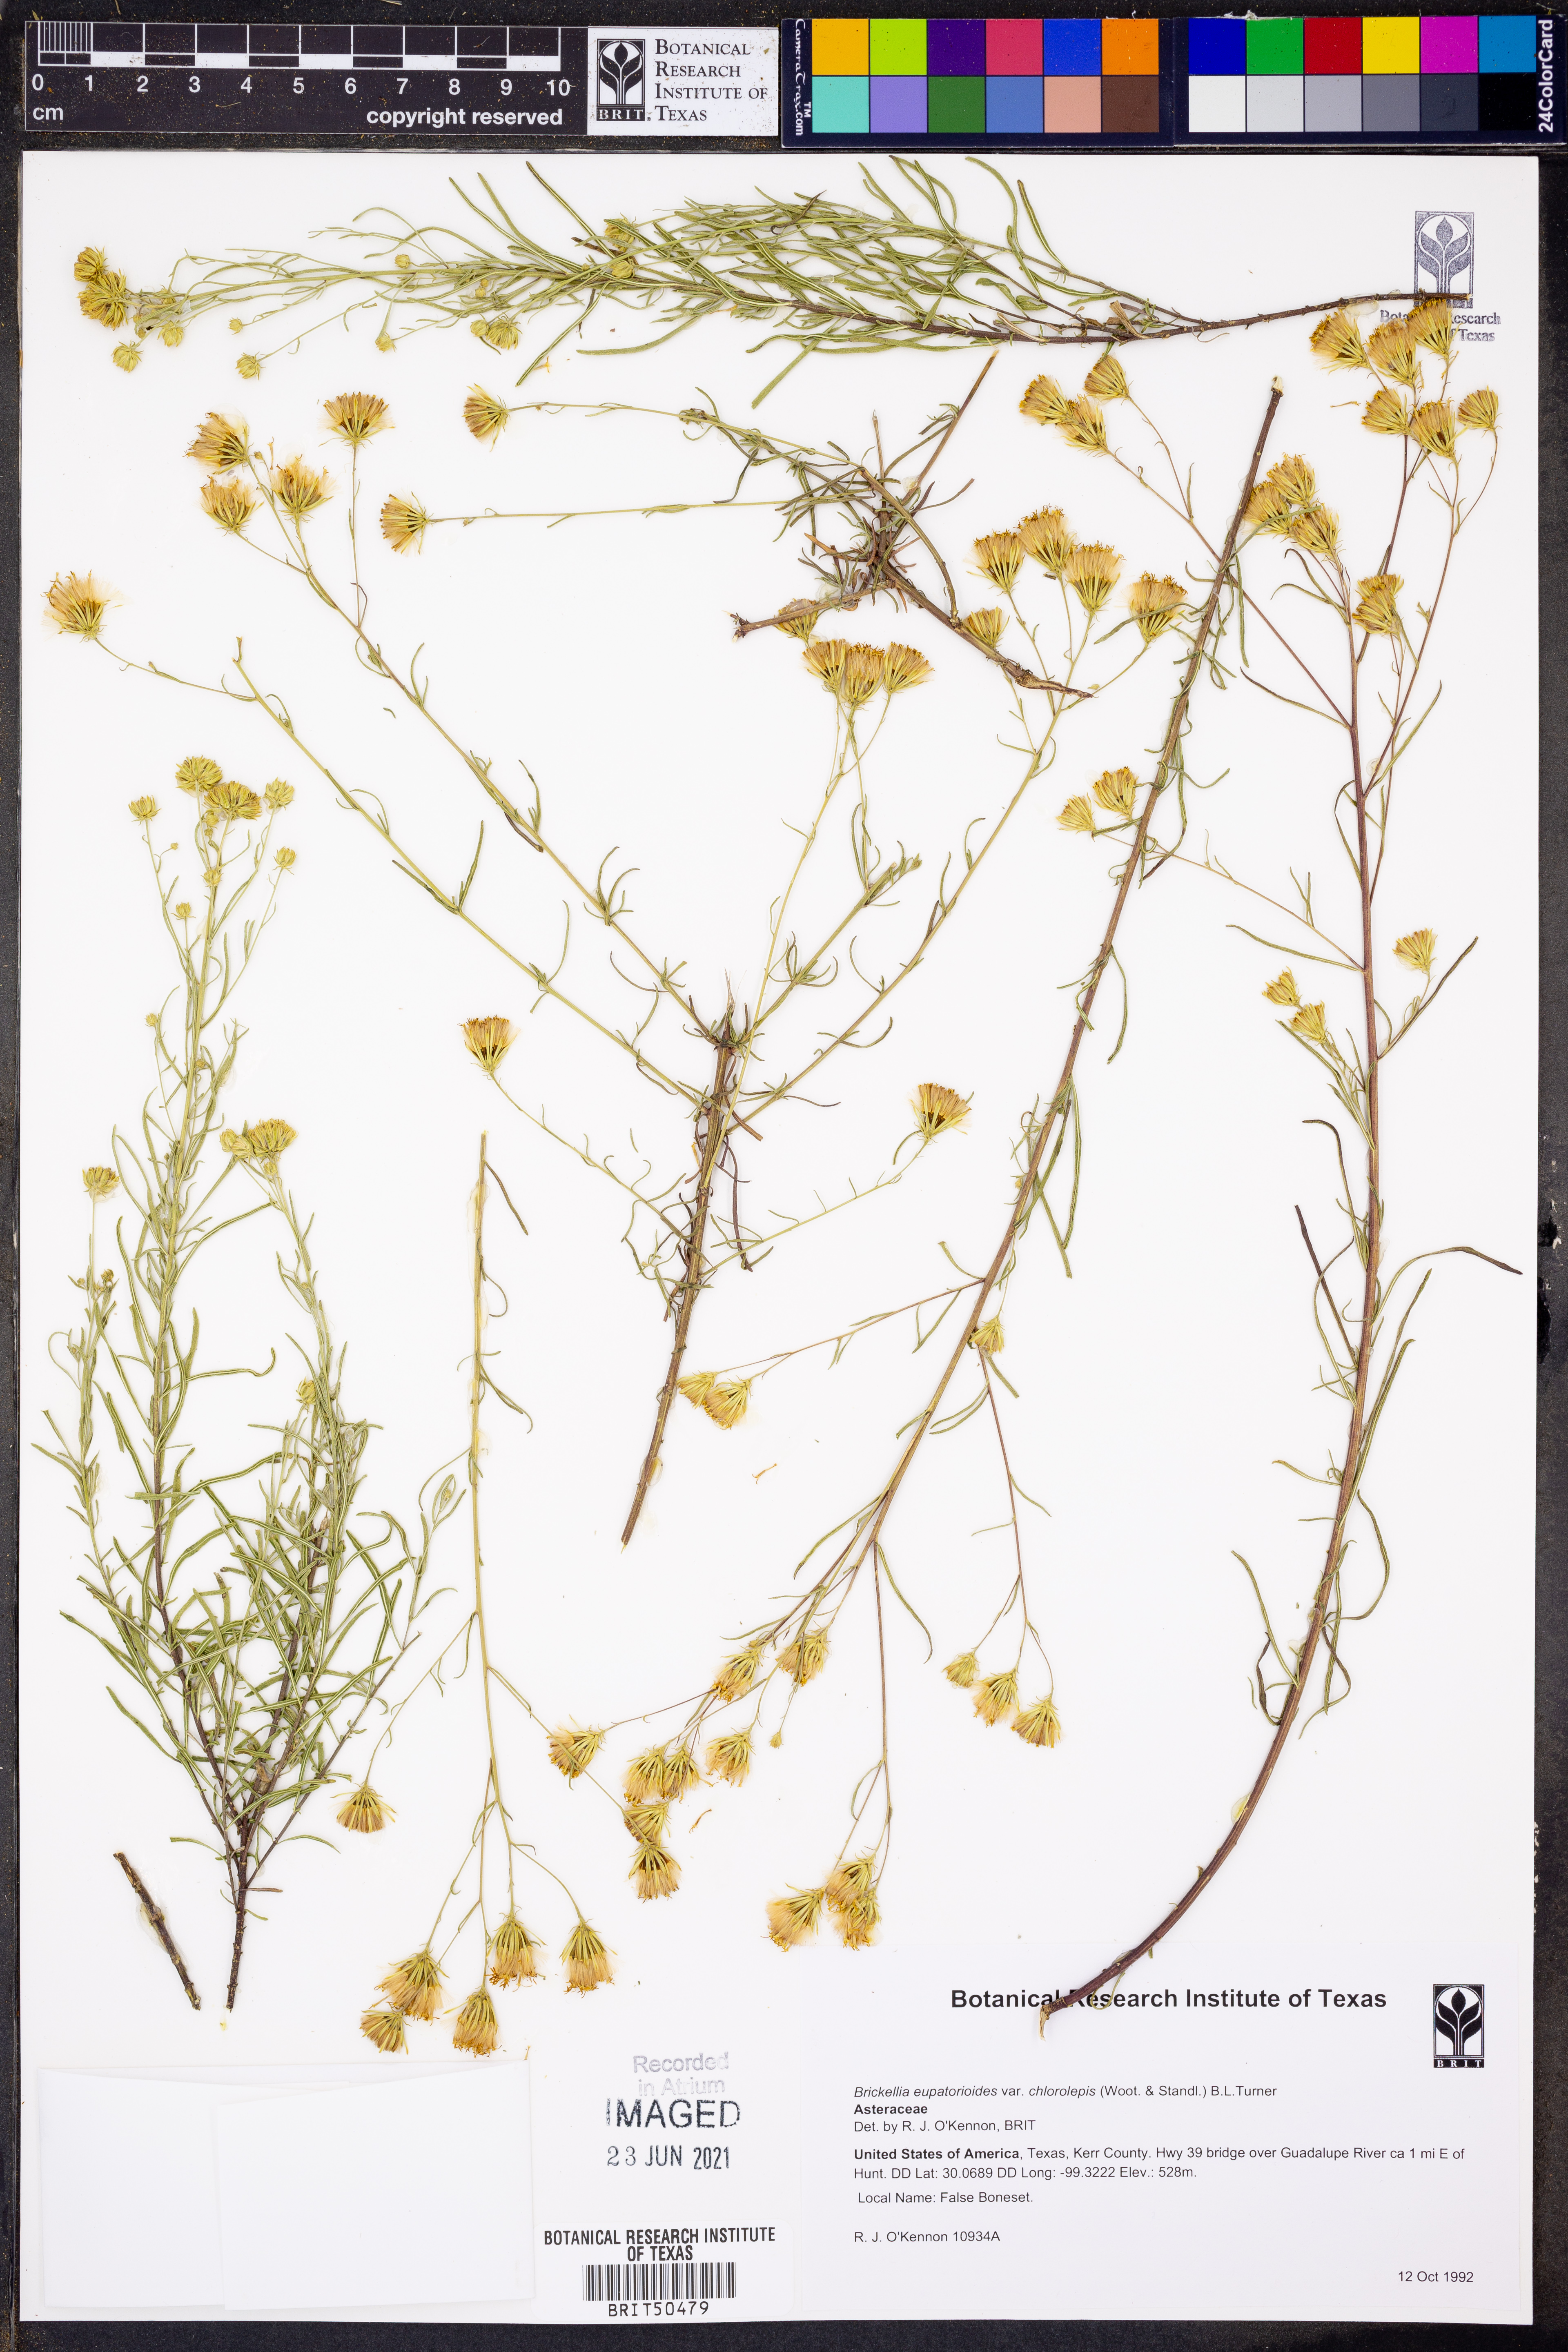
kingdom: Plantae
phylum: Tracheophyta
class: Magnoliopsida
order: Asterales
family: Asteraceae
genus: Brickellia
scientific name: Brickellia leptophylla
